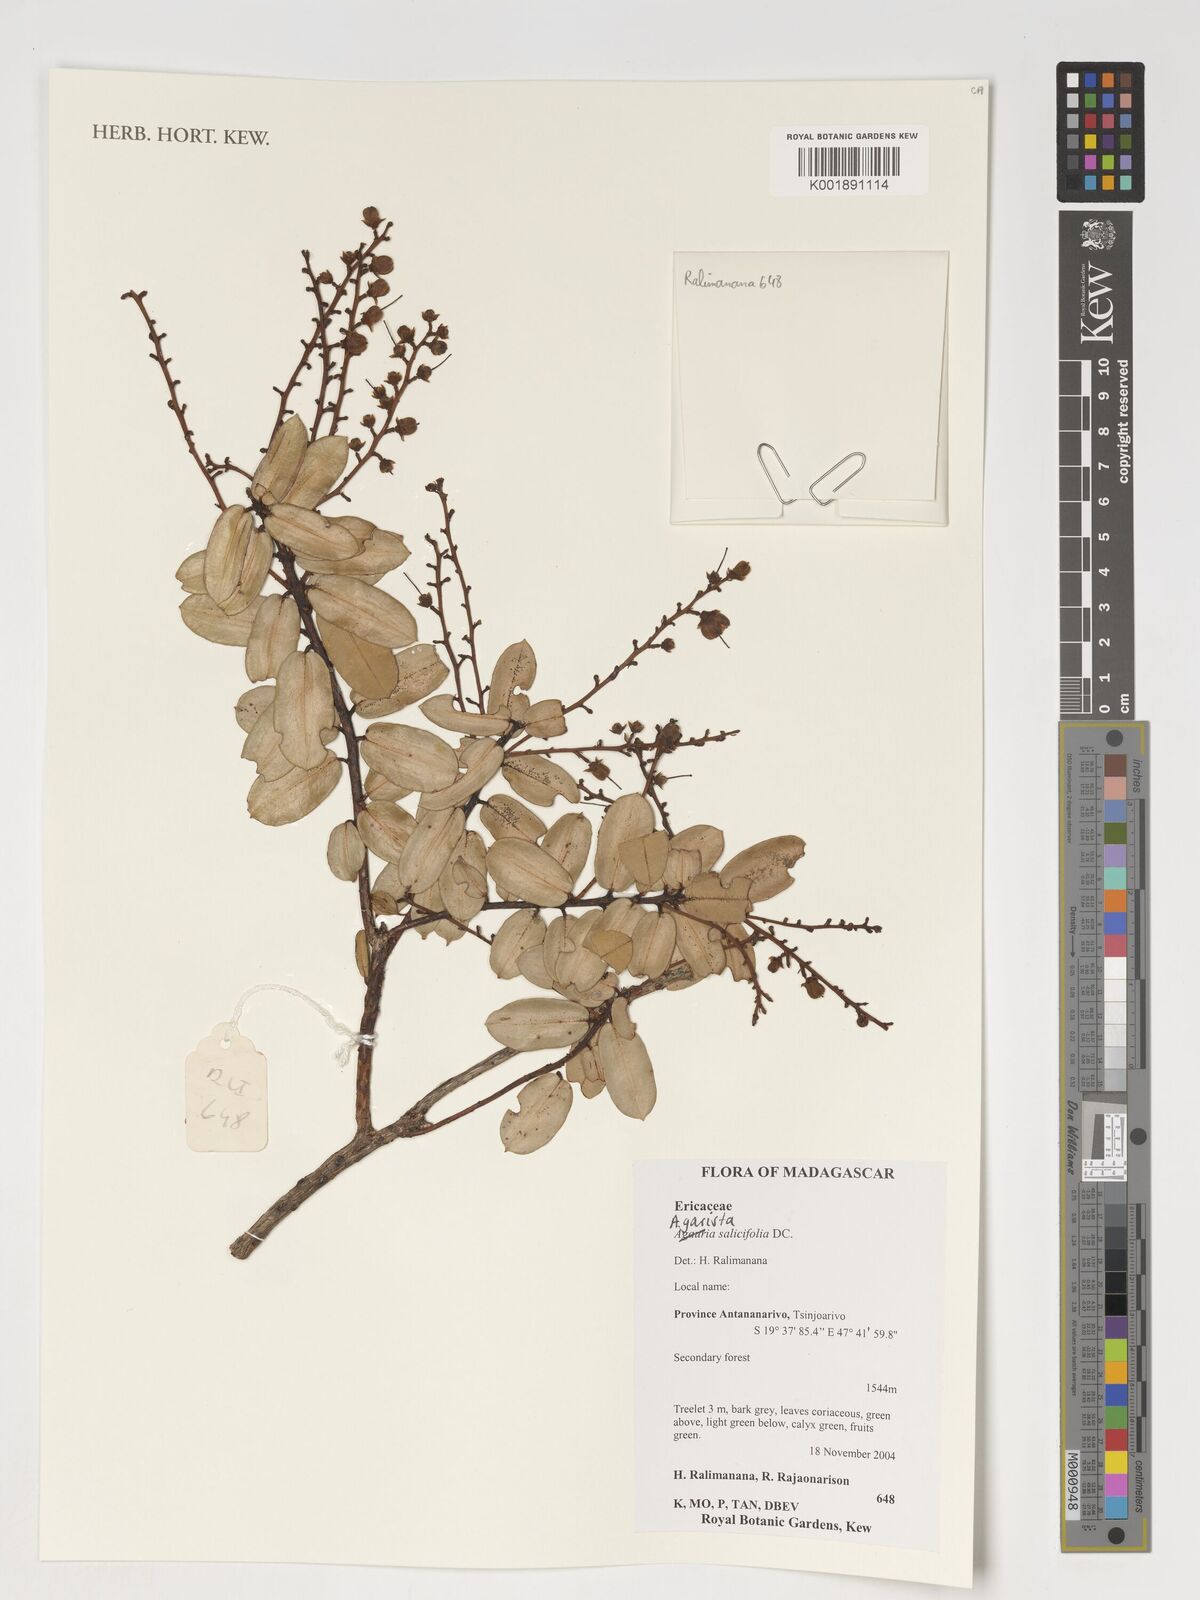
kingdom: Plantae
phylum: Tracheophyta
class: Magnoliopsida
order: Ericales
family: Ericaceae
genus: Agarista
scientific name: Agarista salicifolia
